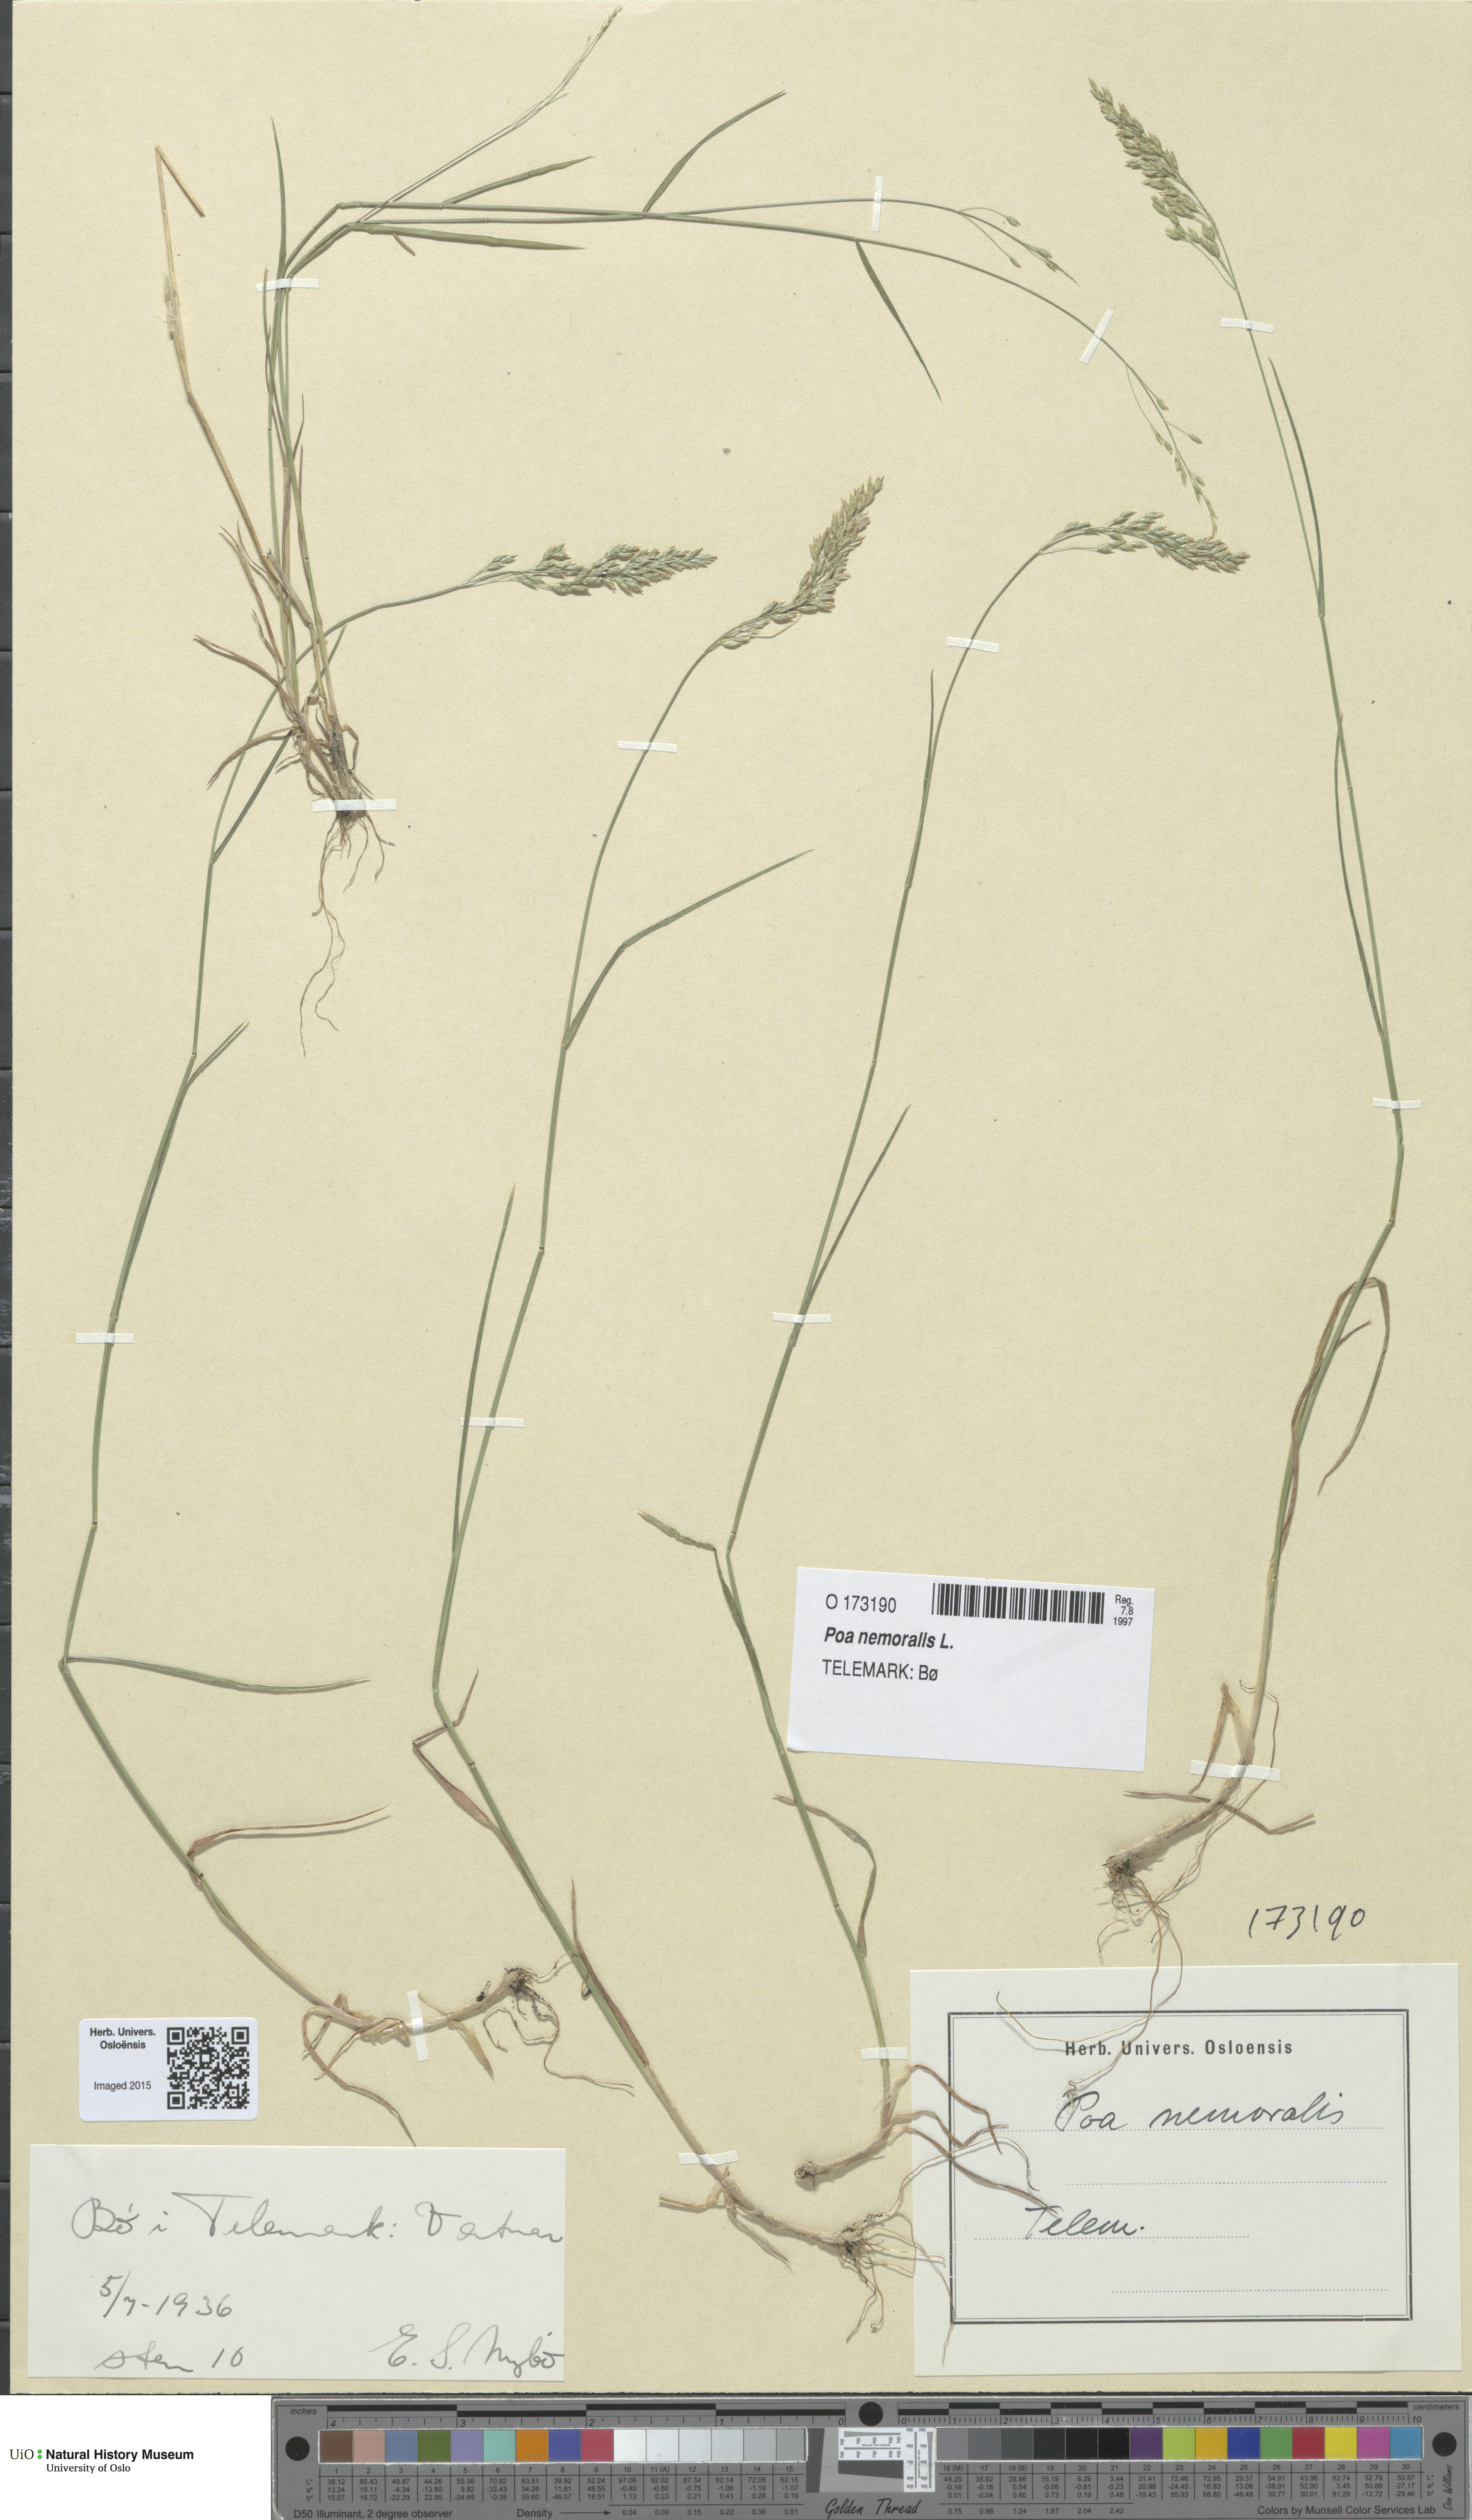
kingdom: Plantae
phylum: Tracheophyta
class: Liliopsida
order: Poales
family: Poaceae
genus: Poa
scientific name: Poa nemoralis
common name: Wood bluegrass
